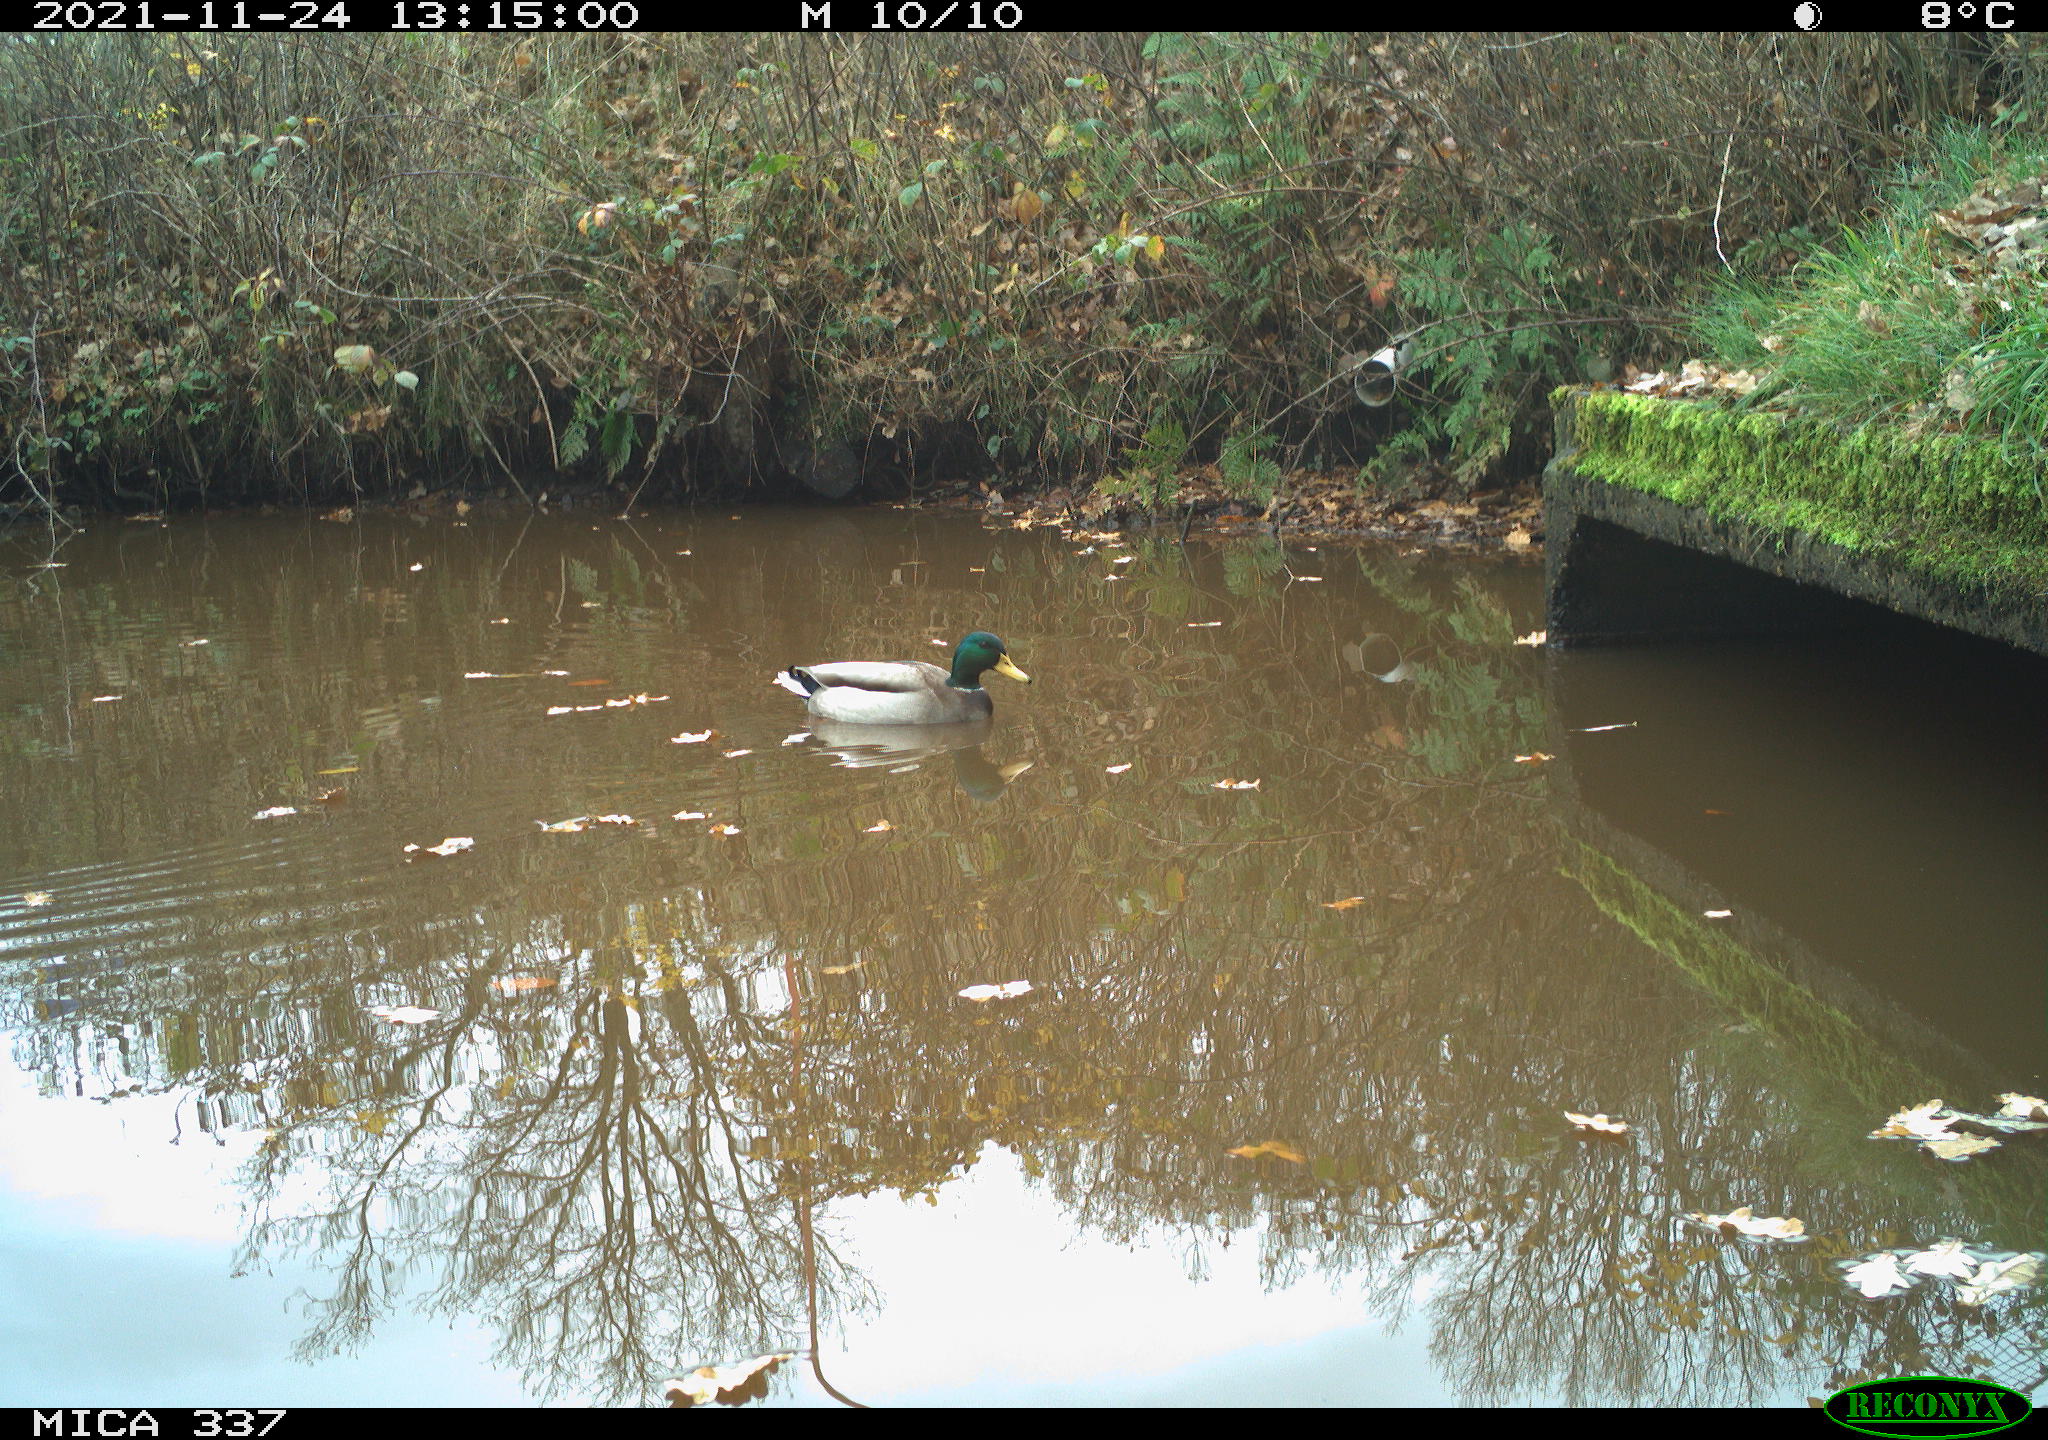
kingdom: Animalia
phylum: Chordata
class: Aves
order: Anseriformes
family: Anatidae
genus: Anas
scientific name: Anas platyrhynchos
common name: Mallard
